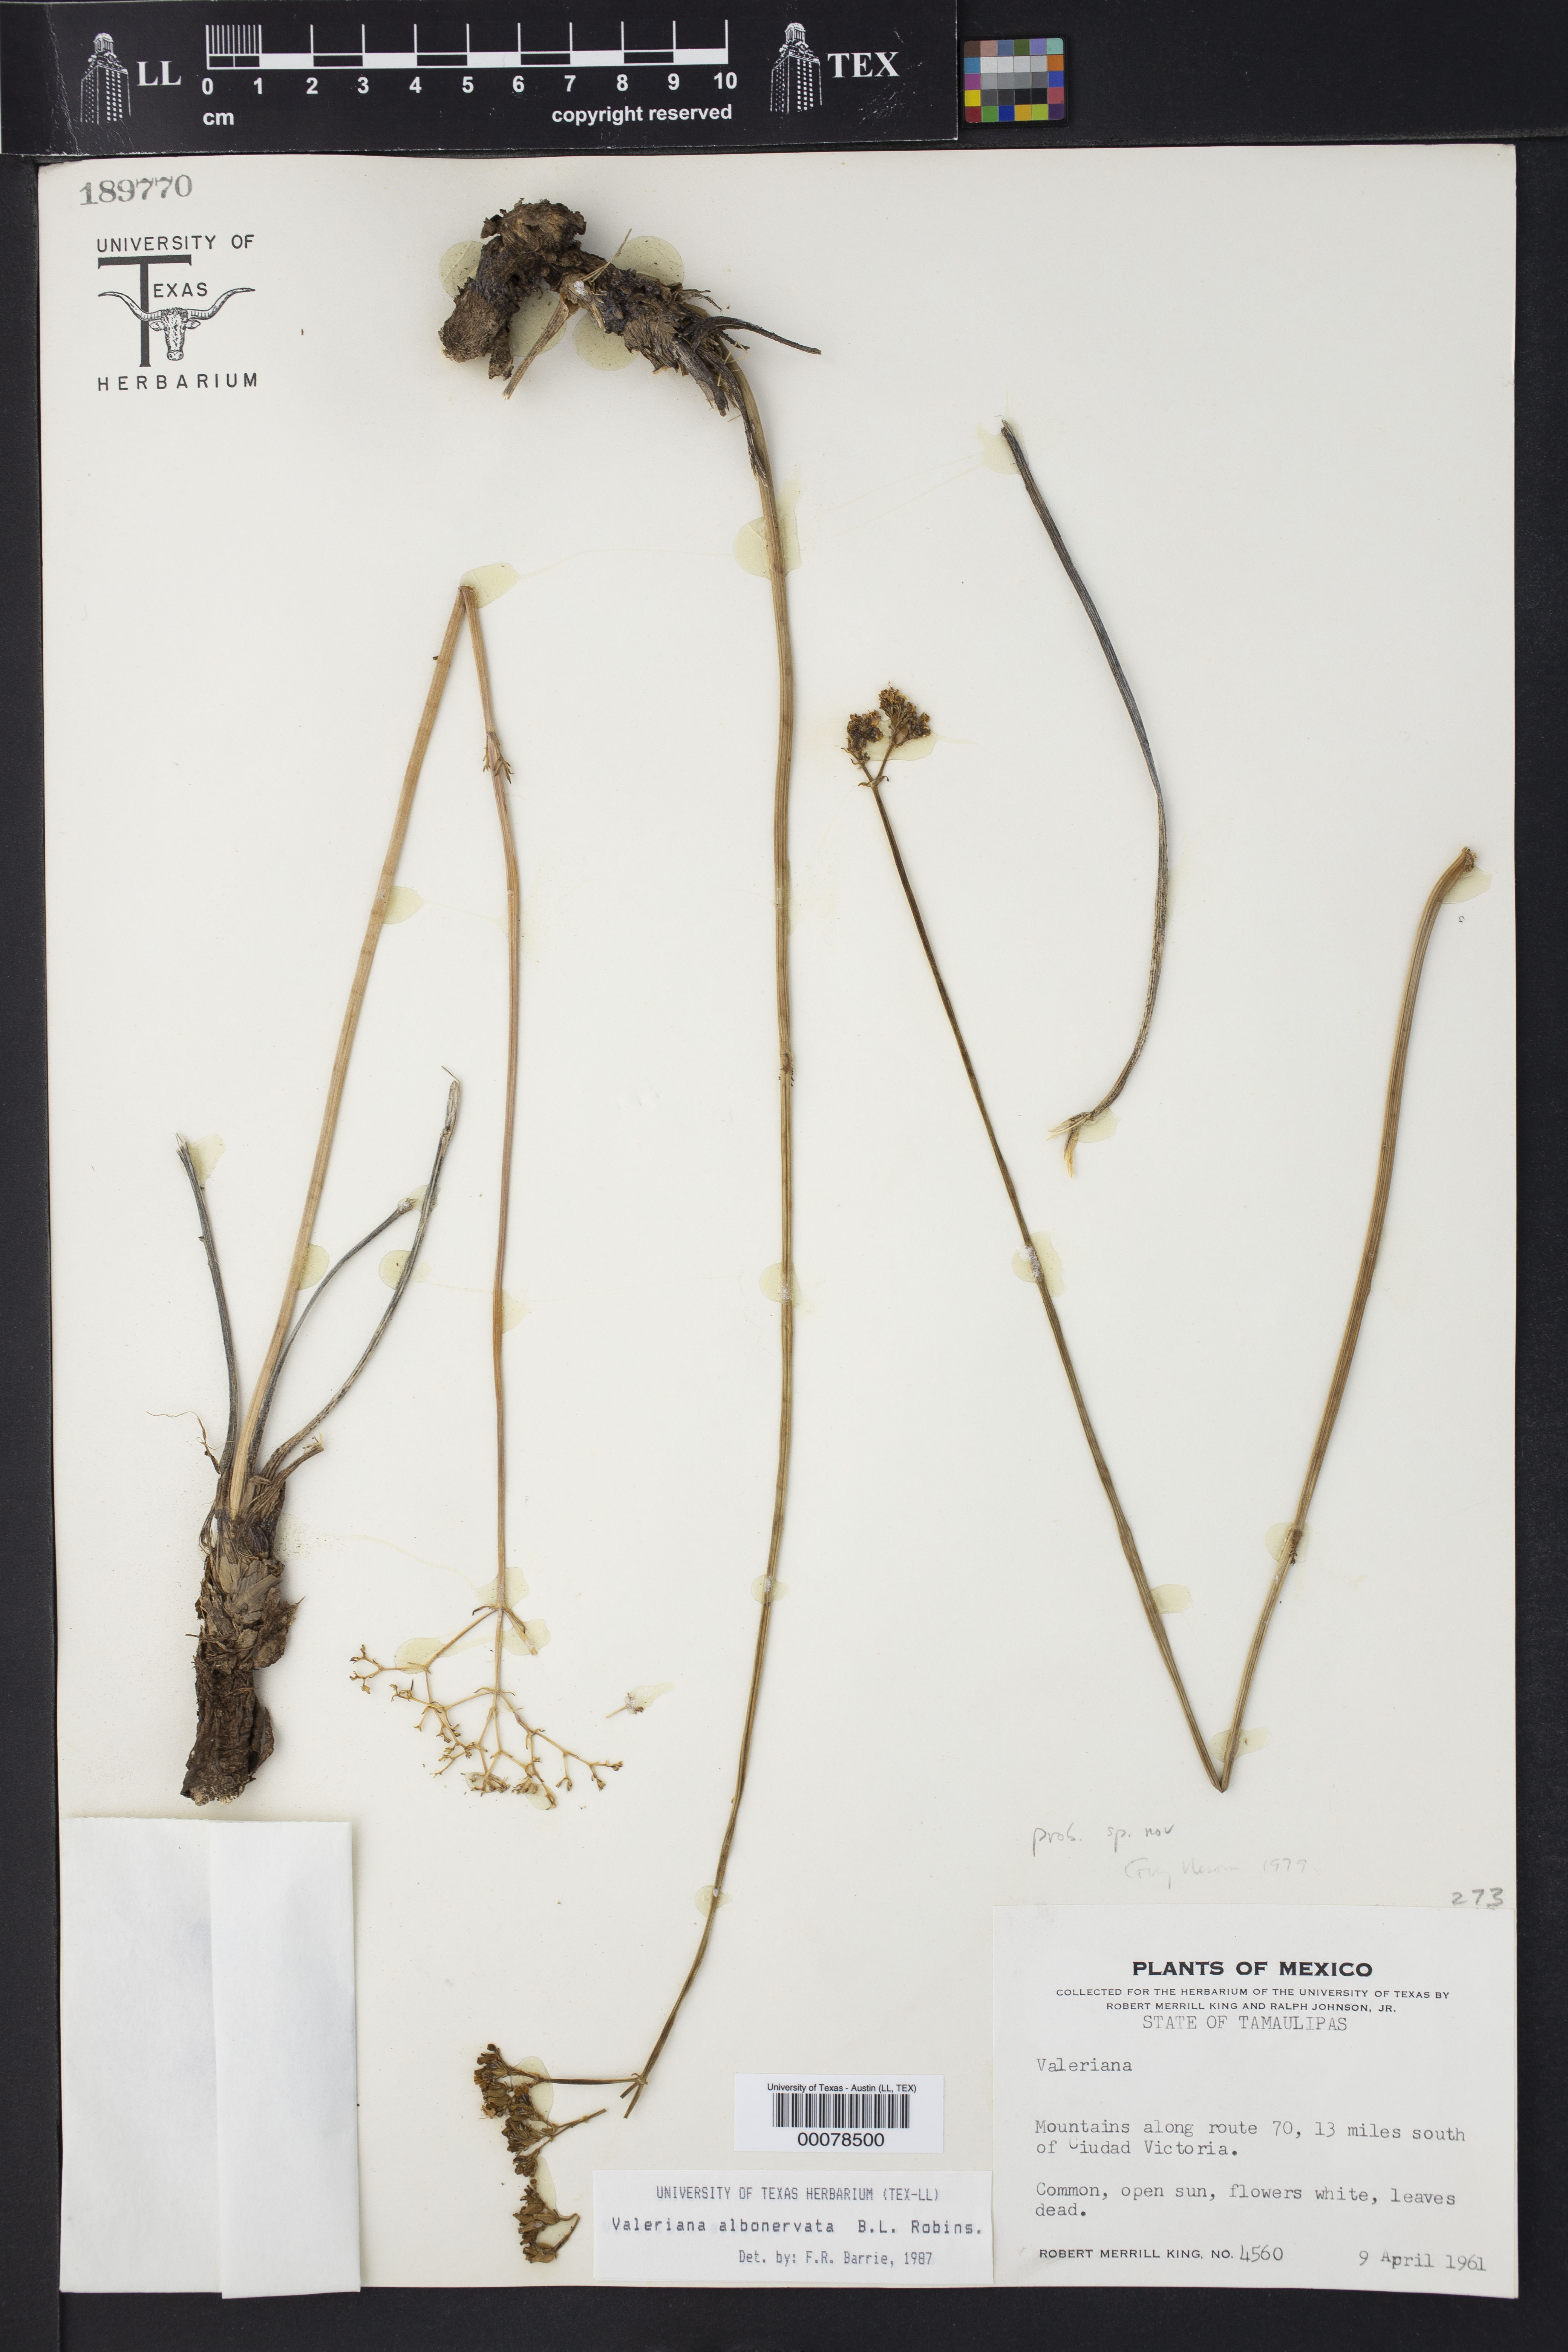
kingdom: Plantae
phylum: Tracheophyta
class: Magnoliopsida
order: Dipsacales
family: Caprifoliaceae
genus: Valeriana
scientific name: Valeriana albonervata
